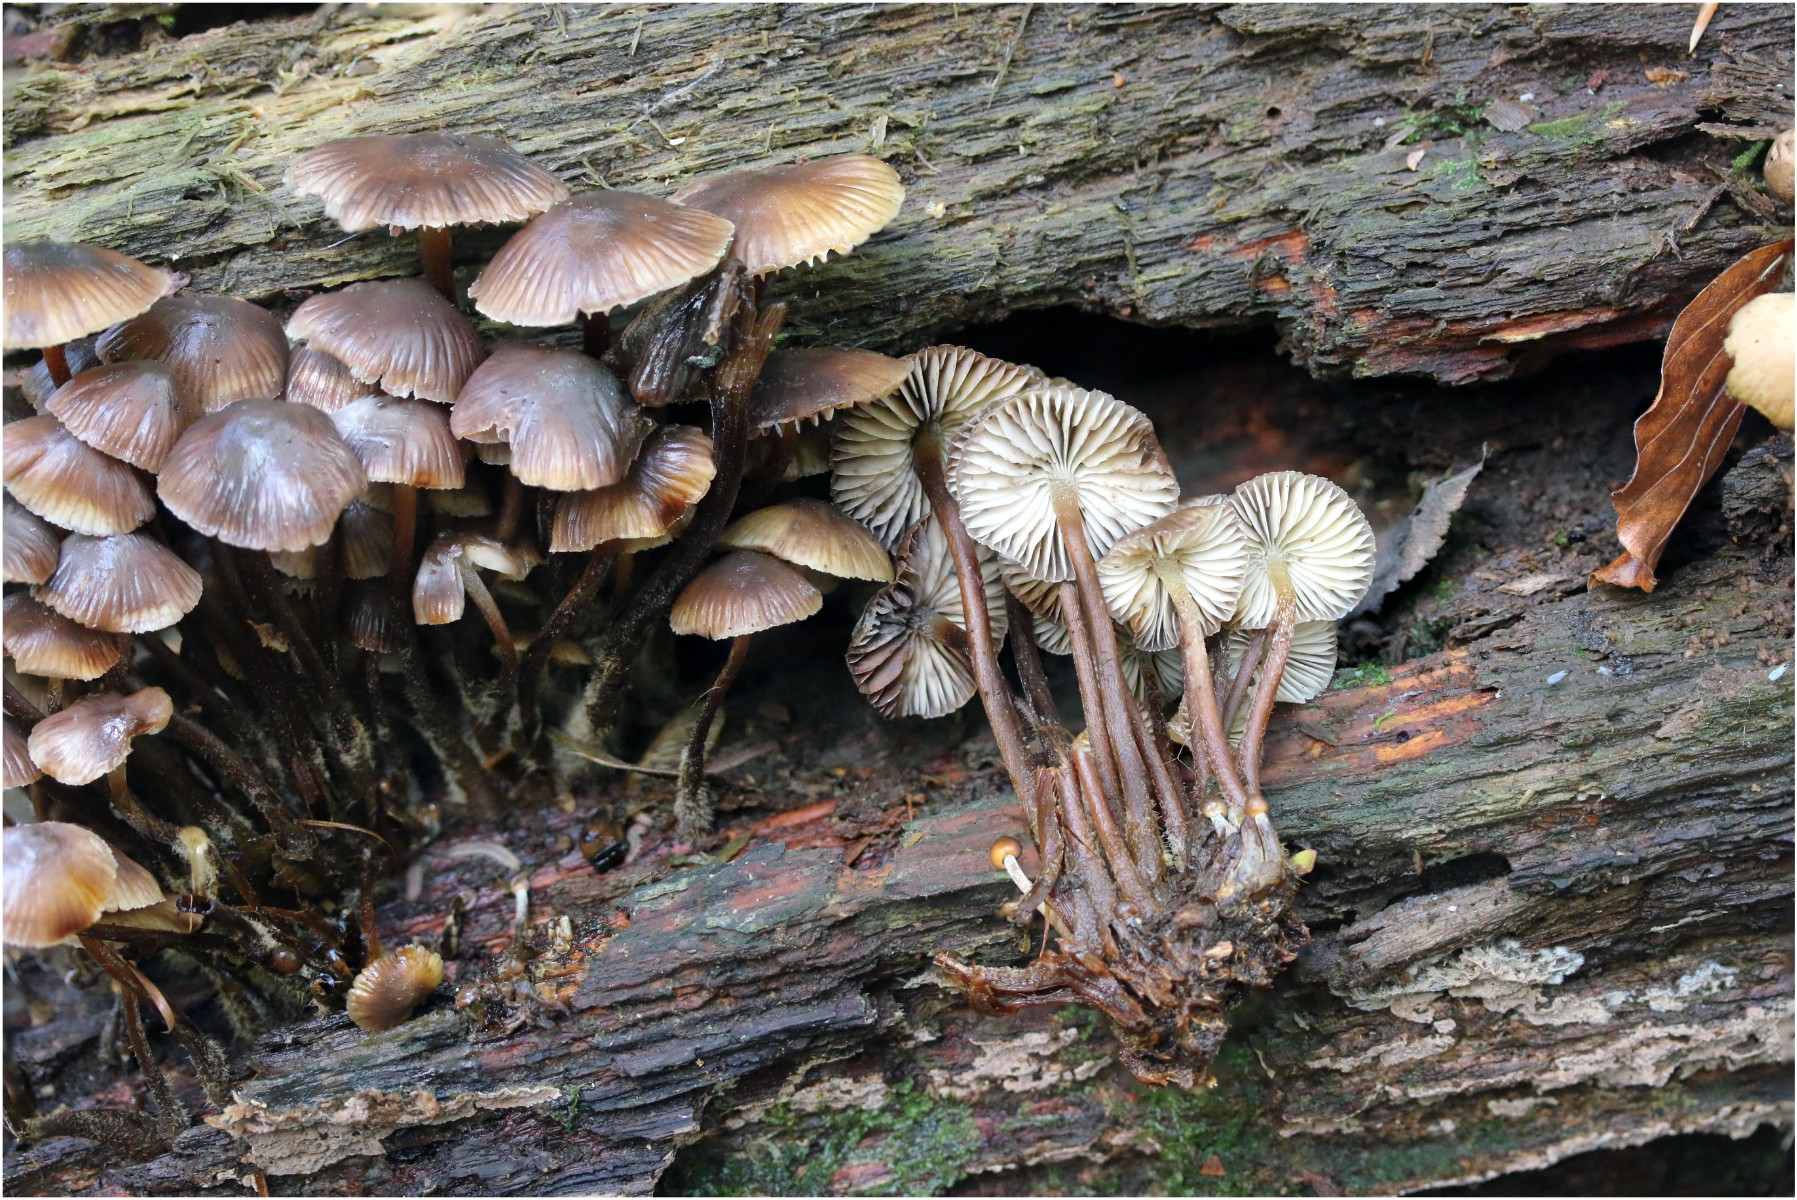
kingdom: Fungi
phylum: Basidiomycota
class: Agaricomycetes
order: Agaricales
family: Mycenaceae
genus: Mycena
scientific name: Mycena maculata
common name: rødplettet huesvamp
